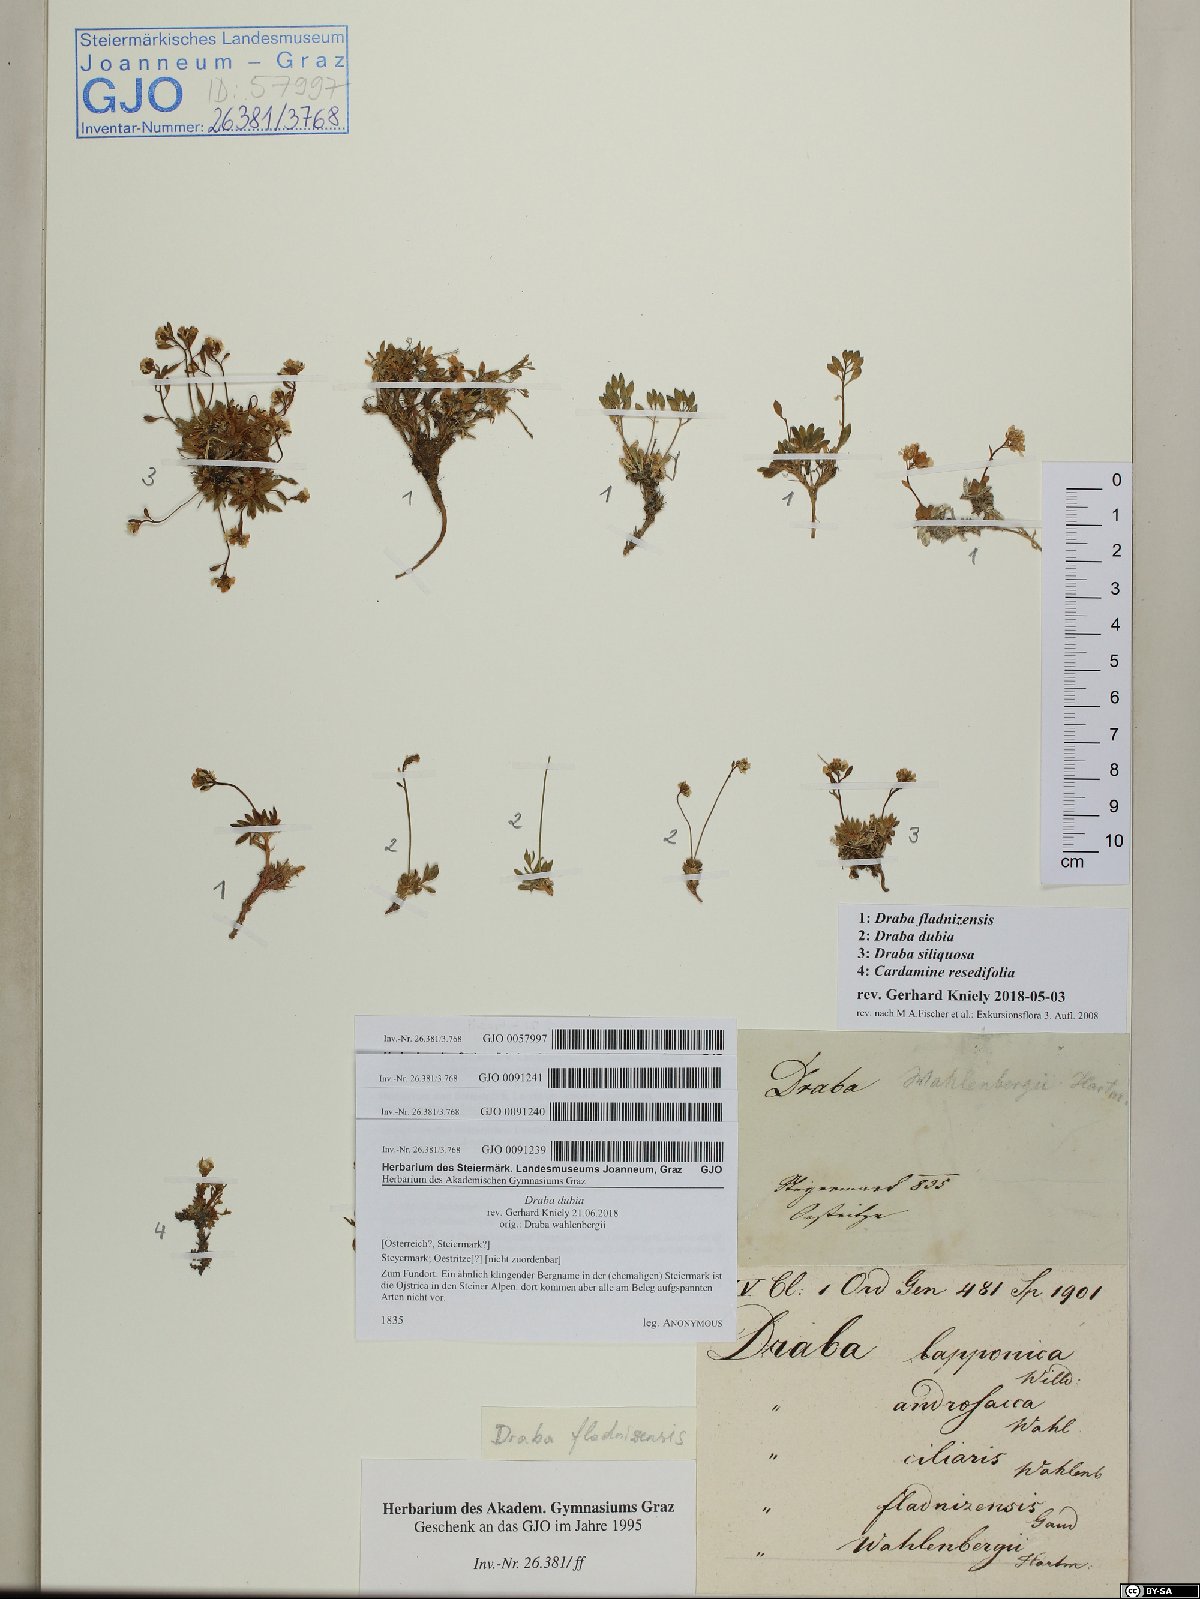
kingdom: Plantae
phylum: Tracheophyta
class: Magnoliopsida
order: Brassicales
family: Brassicaceae
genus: Draba
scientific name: Draba dubia
